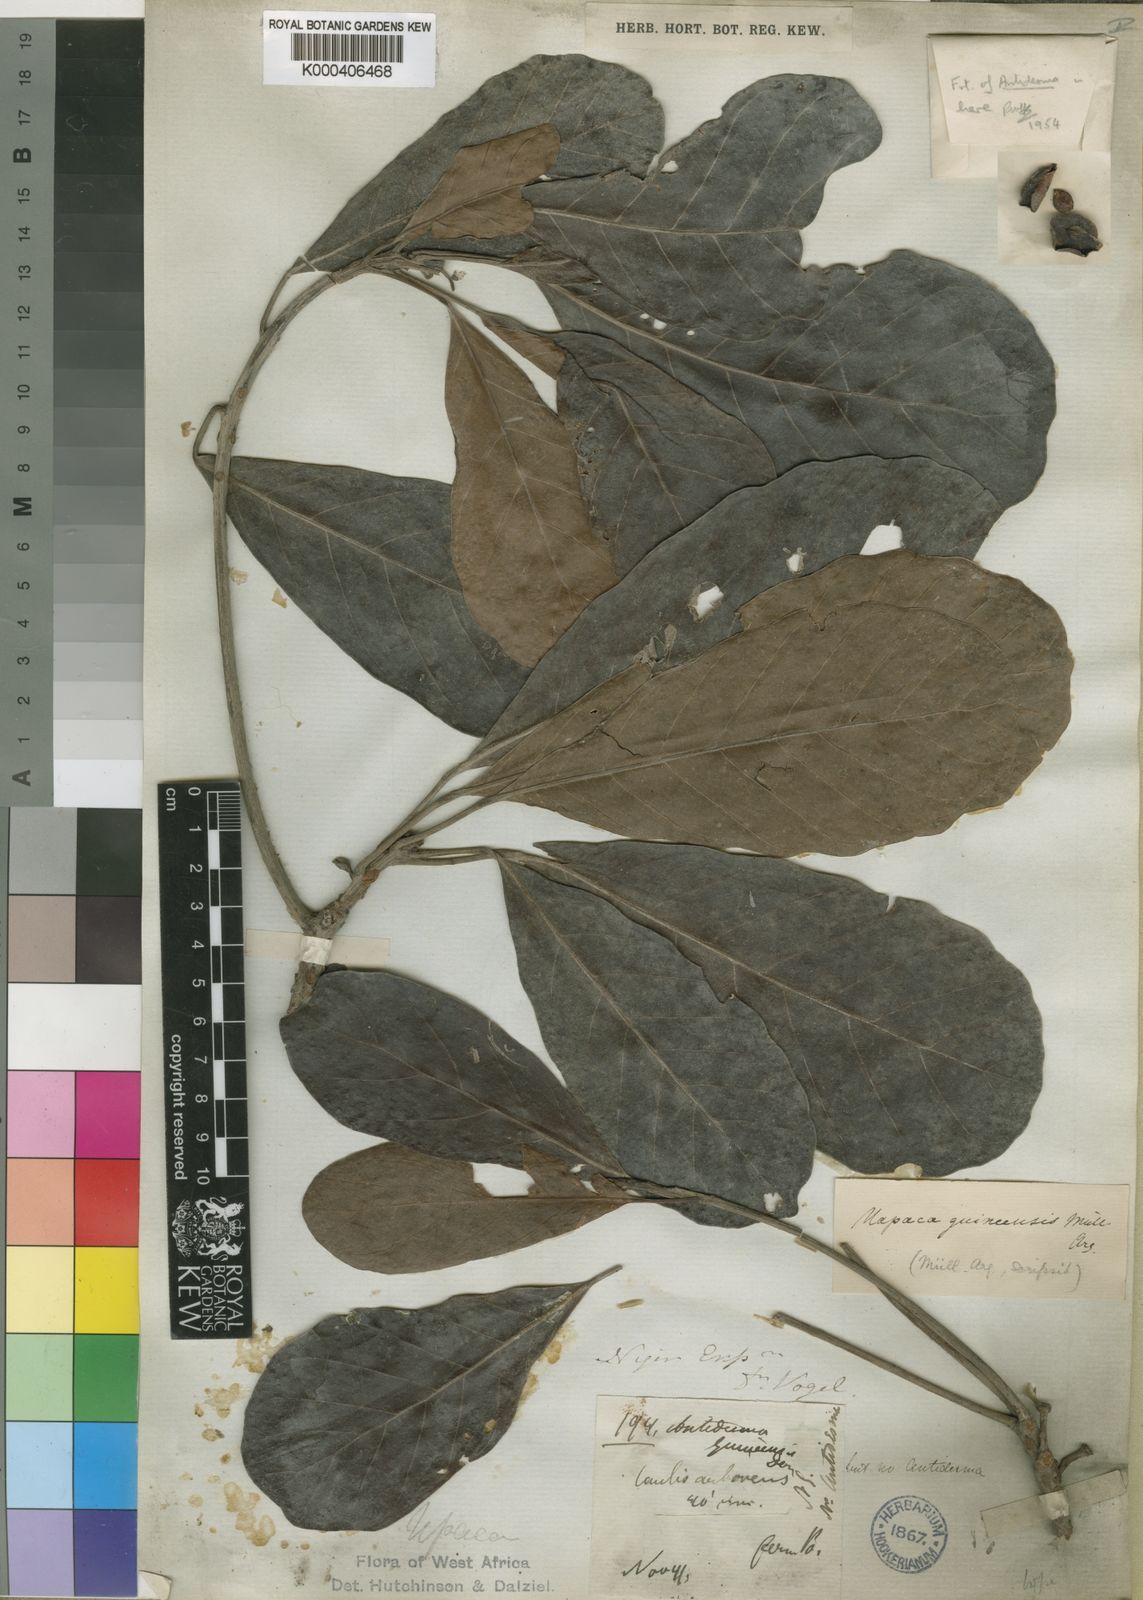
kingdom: Plantae
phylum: Tracheophyta
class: Magnoliopsida
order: Malpighiales
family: Phyllanthaceae
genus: Uapaca
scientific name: Uapaca
